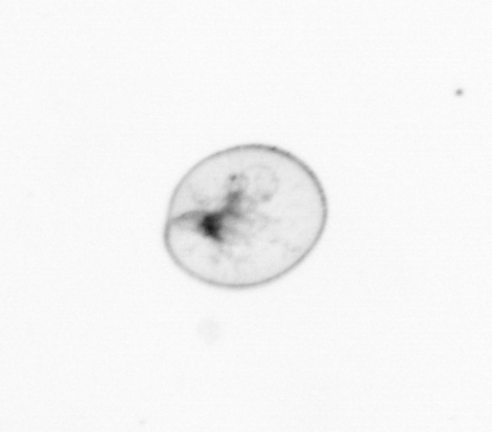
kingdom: Chromista
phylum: Myzozoa
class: Dinophyceae
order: Noctilucales
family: Noctilucaceae
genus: Noctiluca
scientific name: Noctiluca scintillans
